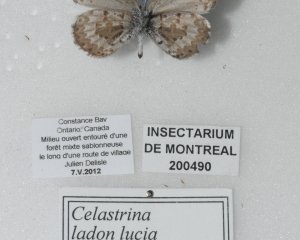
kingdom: Animalia
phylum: Arthropoda
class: Insecta
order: Lepidoptera
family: Lycaenidae
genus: Celastrina
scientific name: Celastrina lucia
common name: Northern Spring Azure
